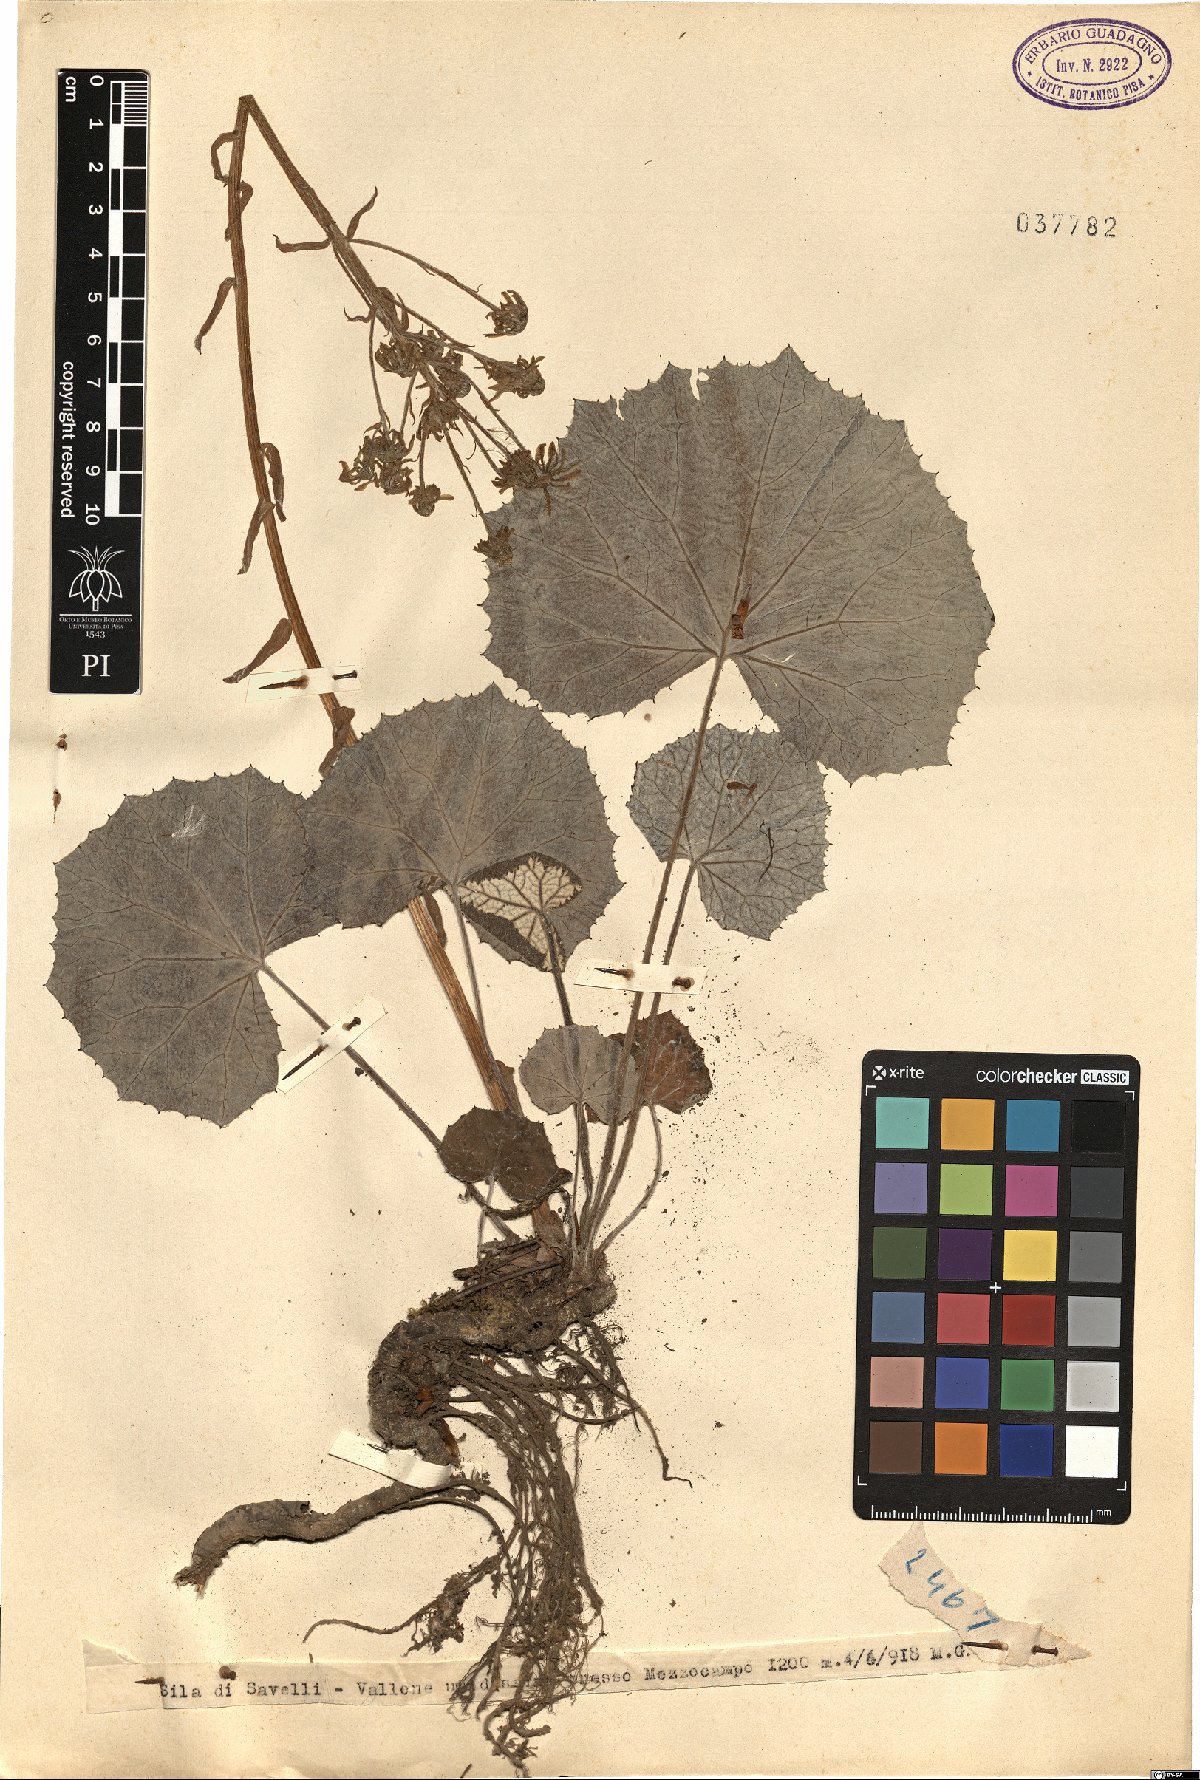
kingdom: Plantae
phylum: Tracheophyta
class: Magnoliopsida
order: Asterales
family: Asteraceae
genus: Petasites
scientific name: Petasites
